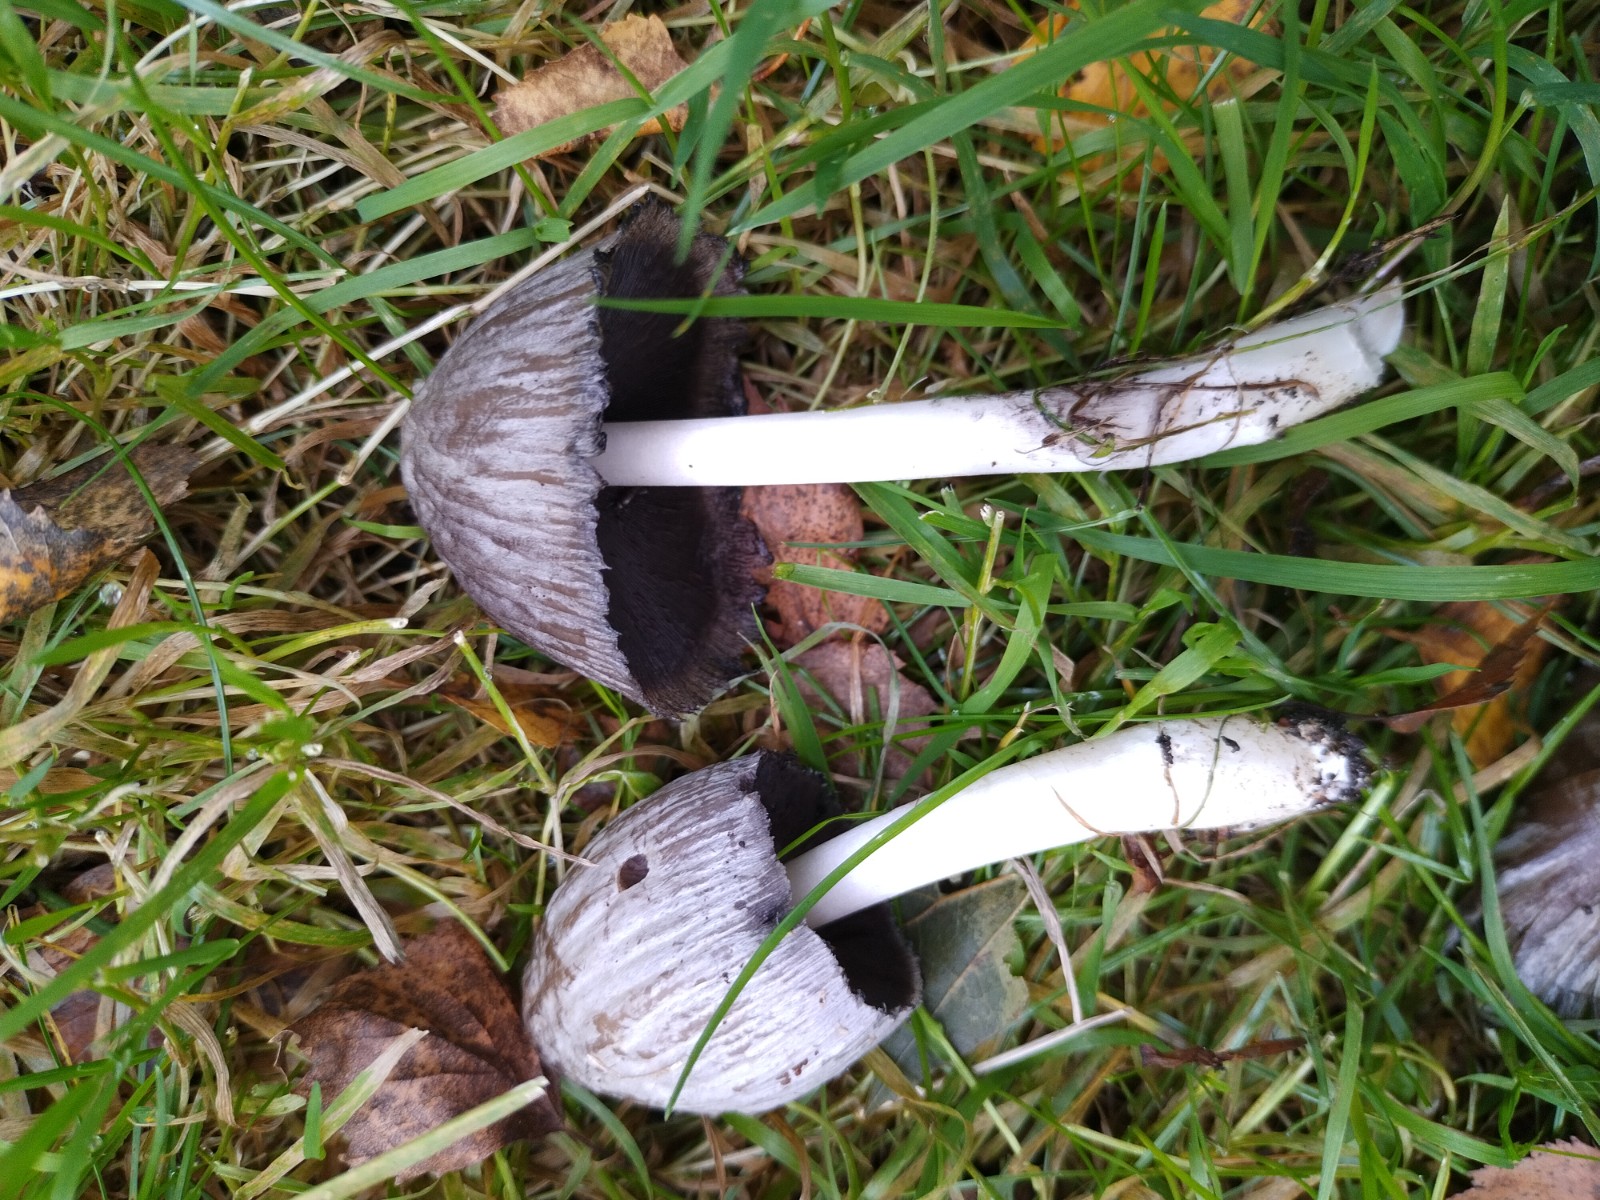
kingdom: Fungi
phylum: Basidiomycota
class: Agaricomycetes
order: Agaricales
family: Psathyrellaceae
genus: Coprinopsis
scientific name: Coprinopsis atramentaria
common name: almindelig blækhat
